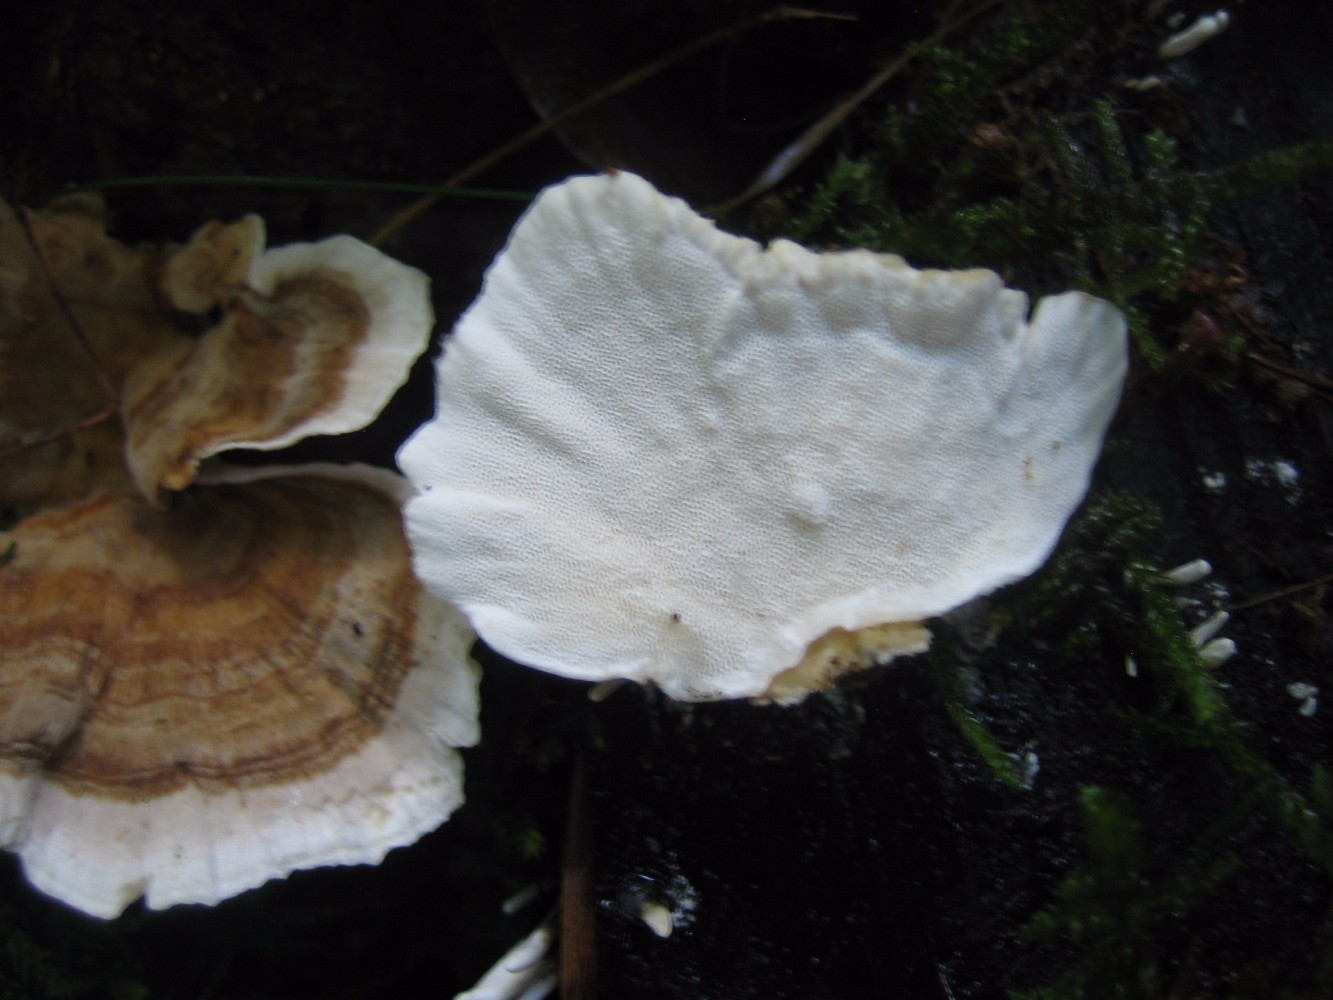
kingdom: Fungi
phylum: Basidiomycota
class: Agaricomycetes
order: Polyporales
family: Polyporaceae
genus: Trametes
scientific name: Trametes versicolor
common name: broget læderporesvamp
